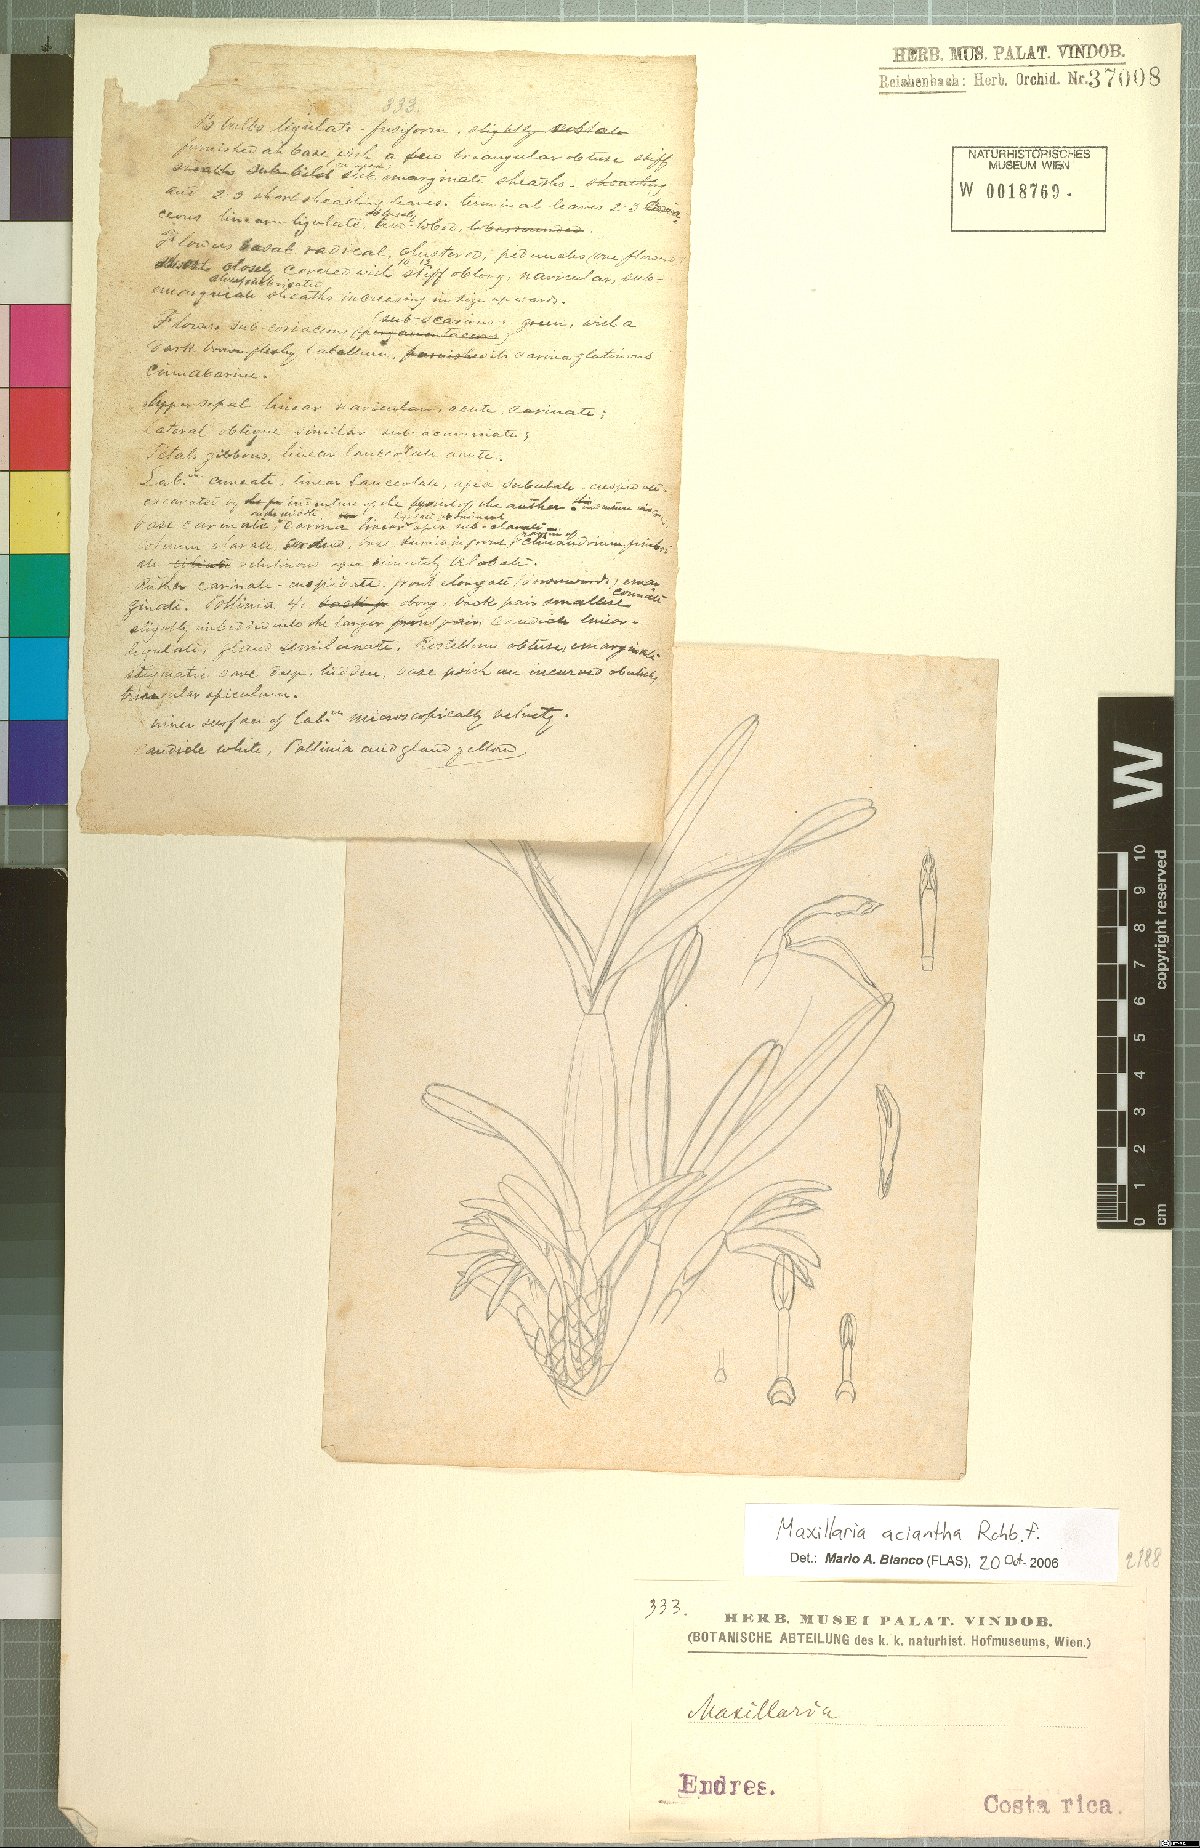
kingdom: Plantae
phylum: Tracheophyta
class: Liliopsida
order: Asparagales
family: Orchidaceae
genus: Maxillaria
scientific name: Maxillaria aciantha
